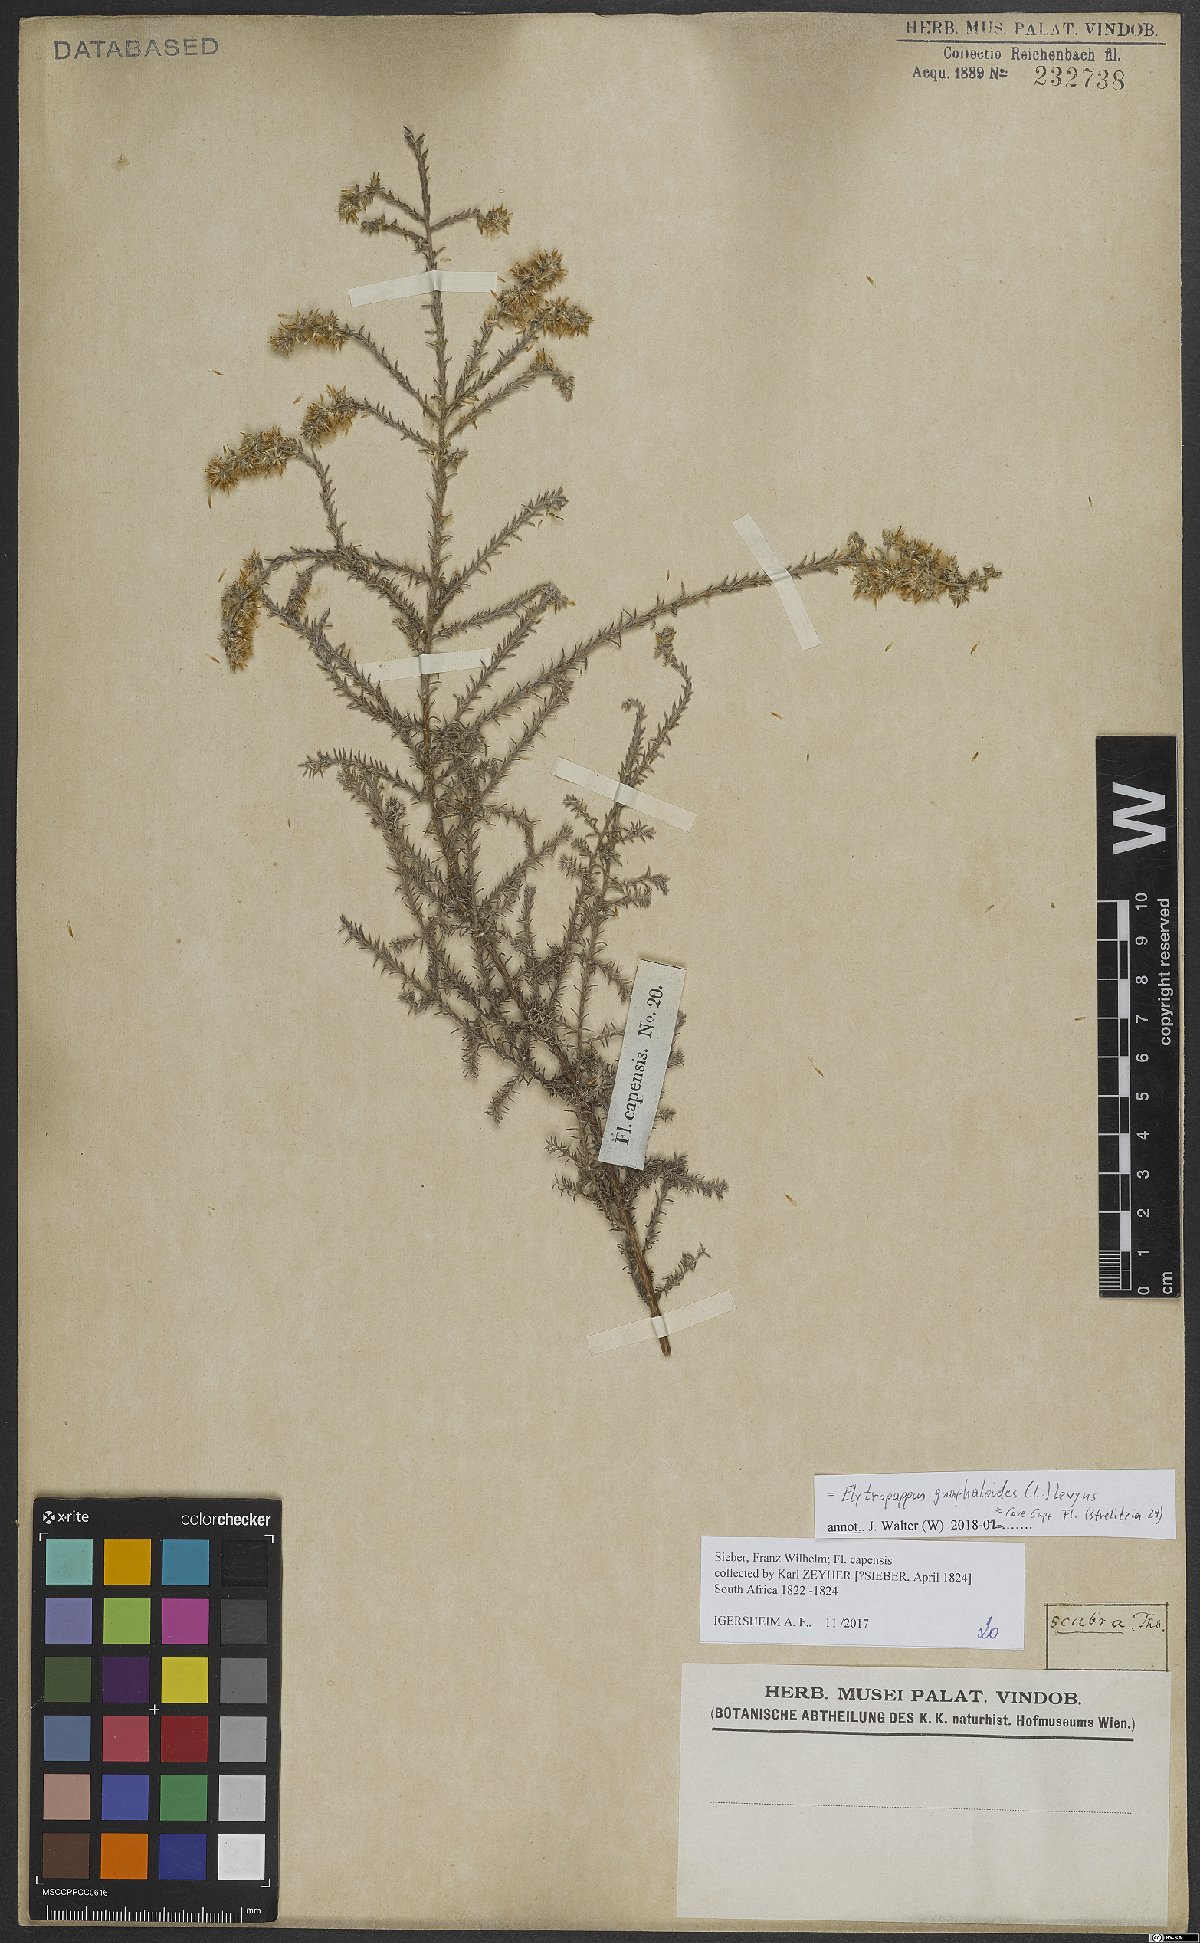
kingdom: Plantae
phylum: Tracheophyta
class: Magnoliopsida
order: Asterales
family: Asteraceae
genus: Myrovernix
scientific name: Myrovernix gnaphaloides
